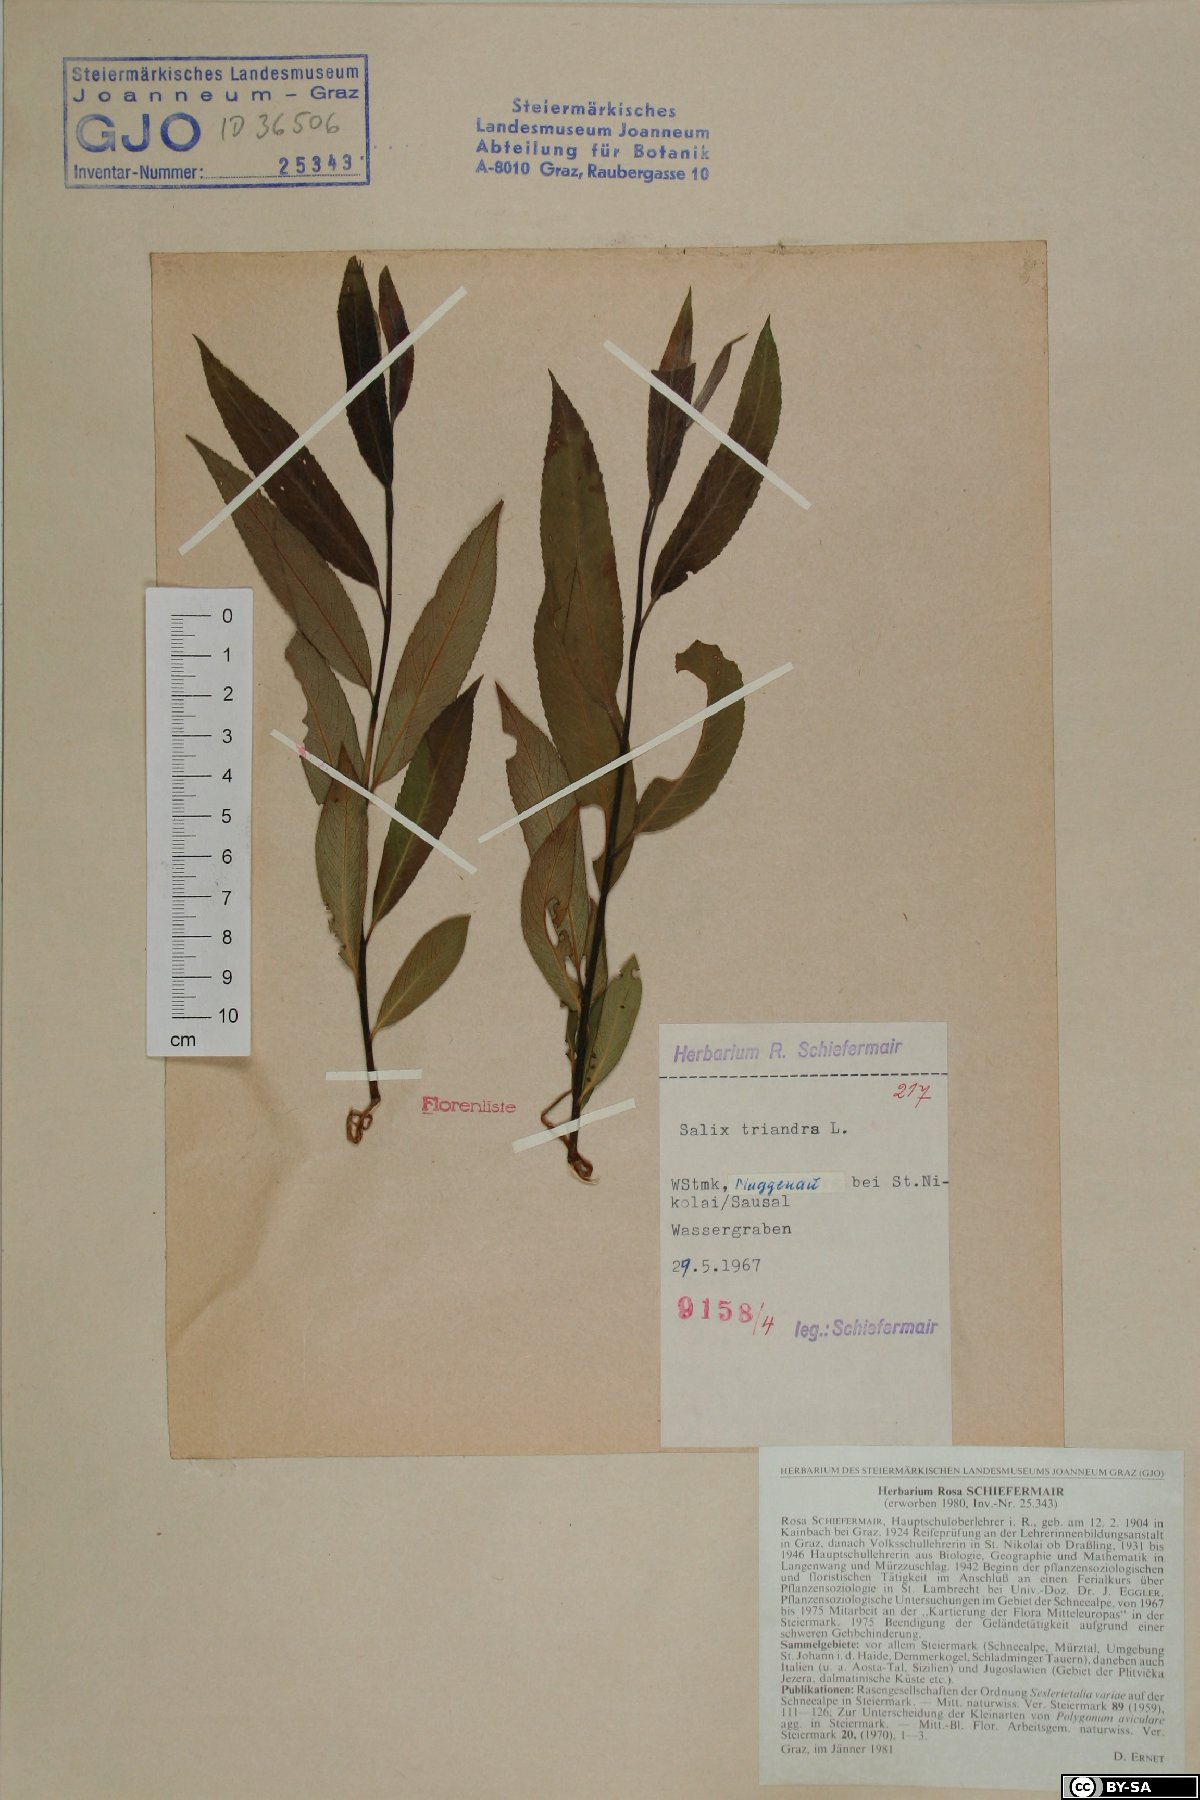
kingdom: Plantae
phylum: Tracheophyta
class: Magnoliopsida
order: Malpighiales
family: Salicaceae
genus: Salix
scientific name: Salix triandra
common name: Almond willow
